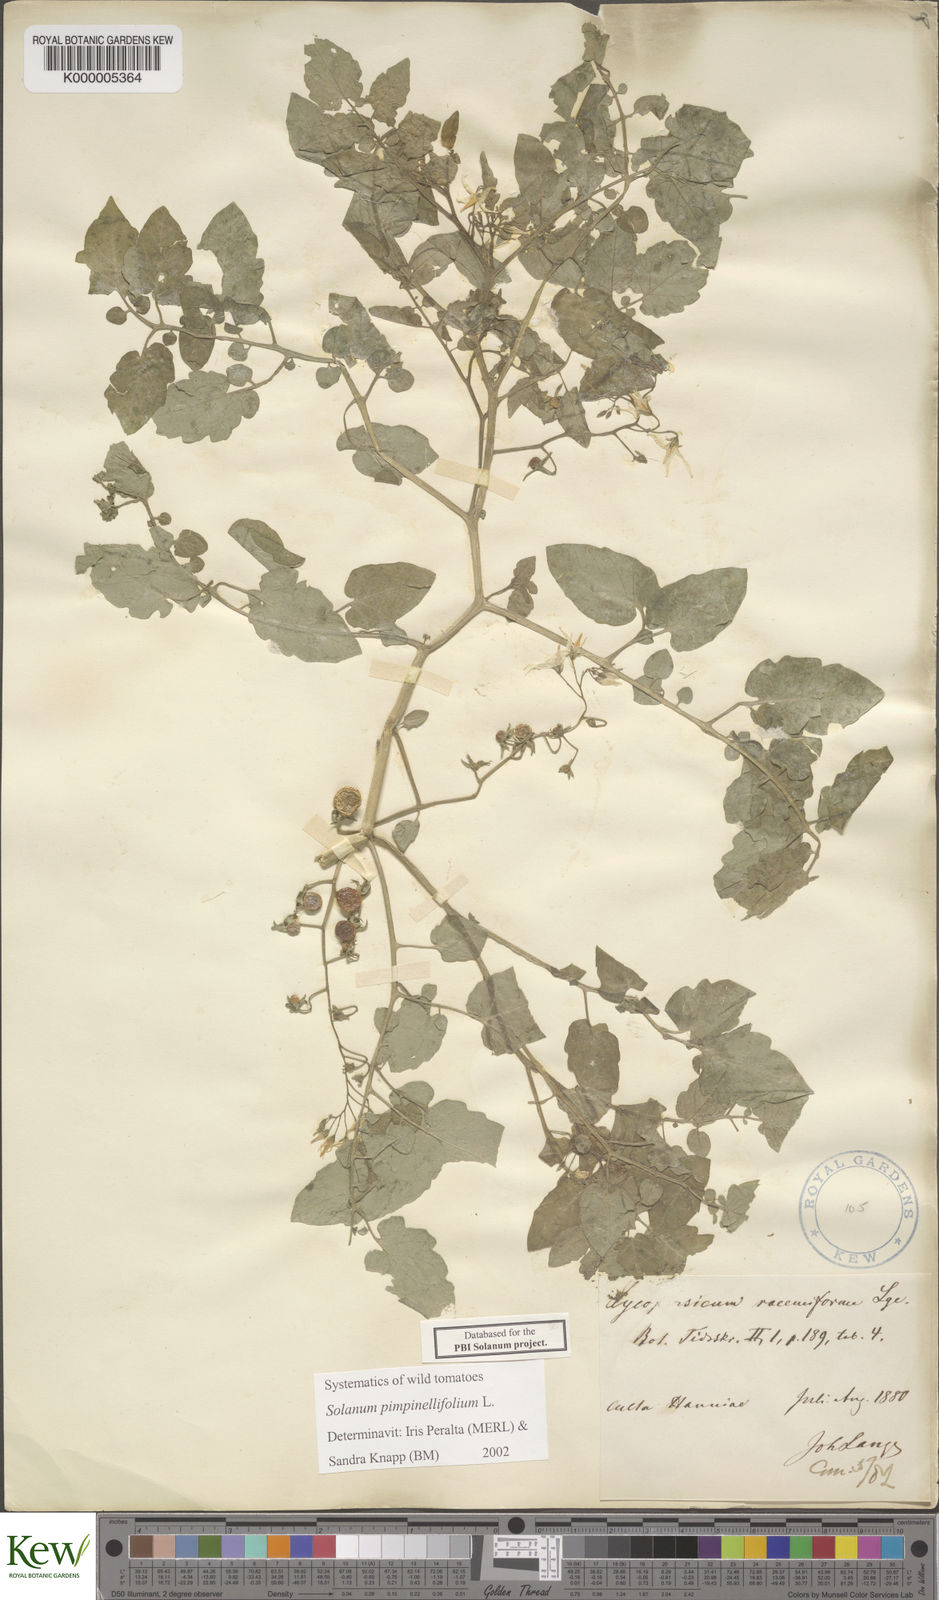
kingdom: Plantae
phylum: Tracheophyta
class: Magnoliopsida
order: Solanales
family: Solanaceae
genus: Solanum
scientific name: Solanum pimpinellifolium
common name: Currant-tomato
